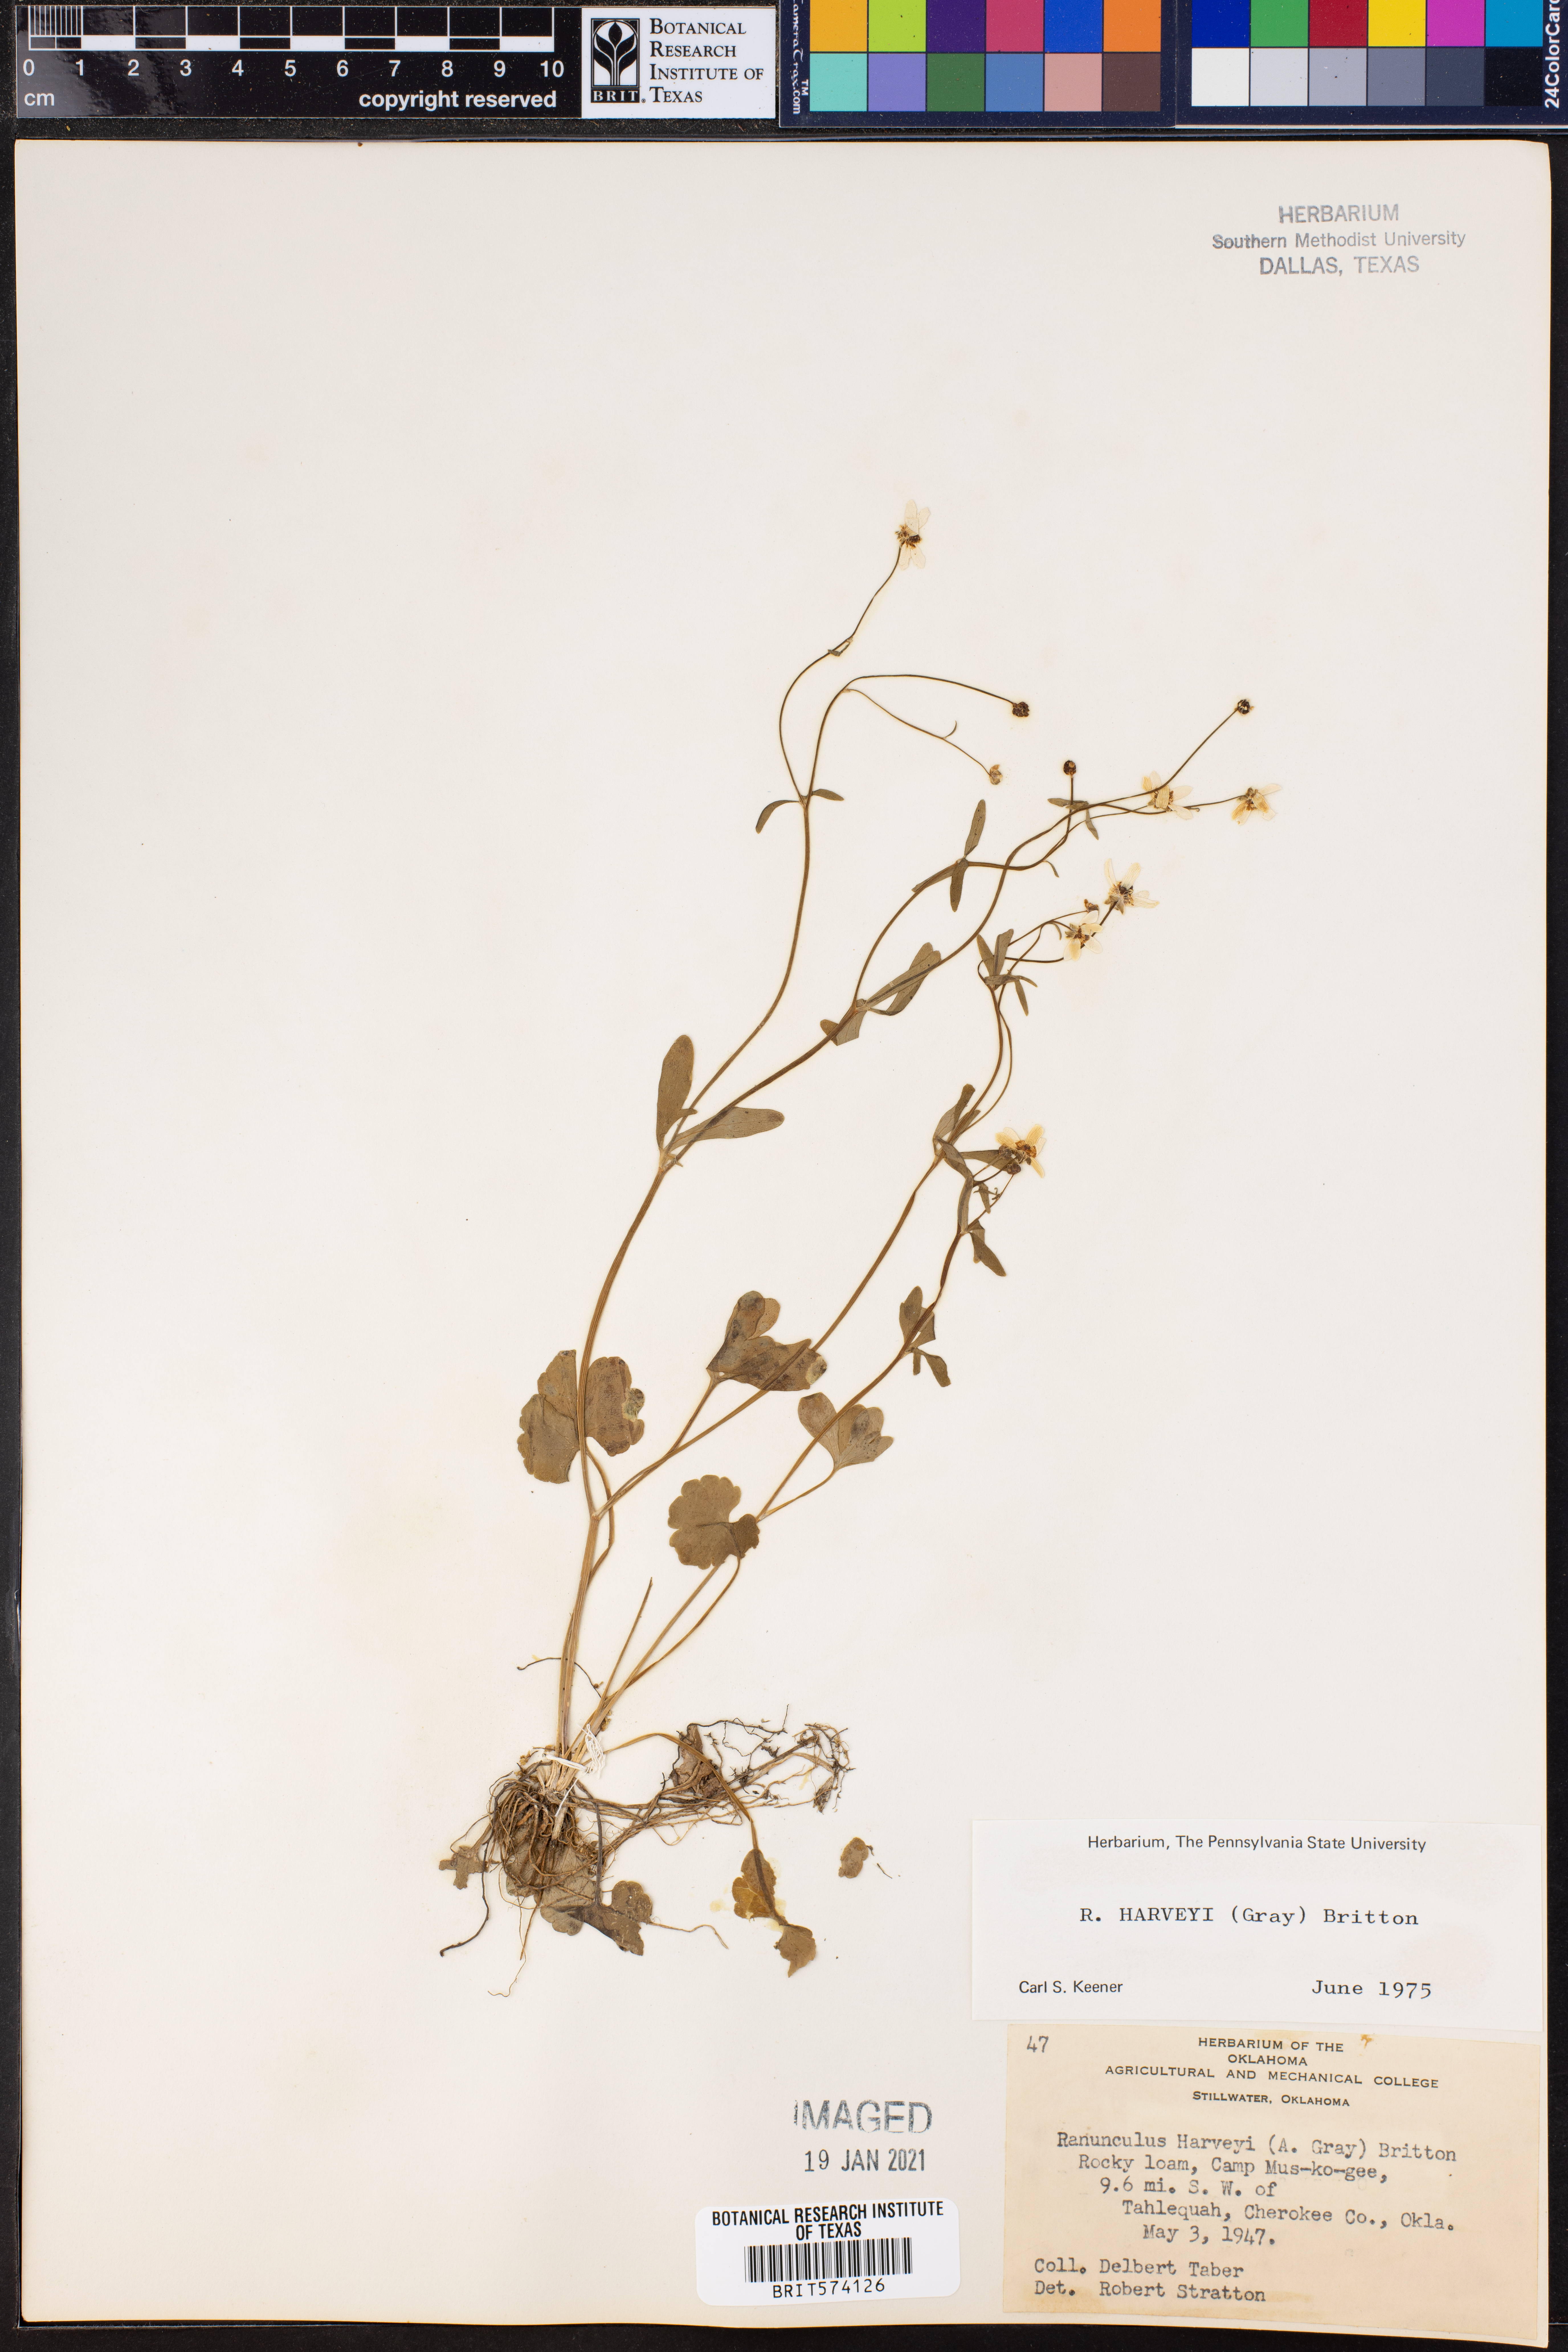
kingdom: Plantae
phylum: Tracheophyta
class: Magnoliopsida
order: Ranunculales
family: Ranunculaceae
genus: Ranunculus
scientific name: Ranunculus harveyi
